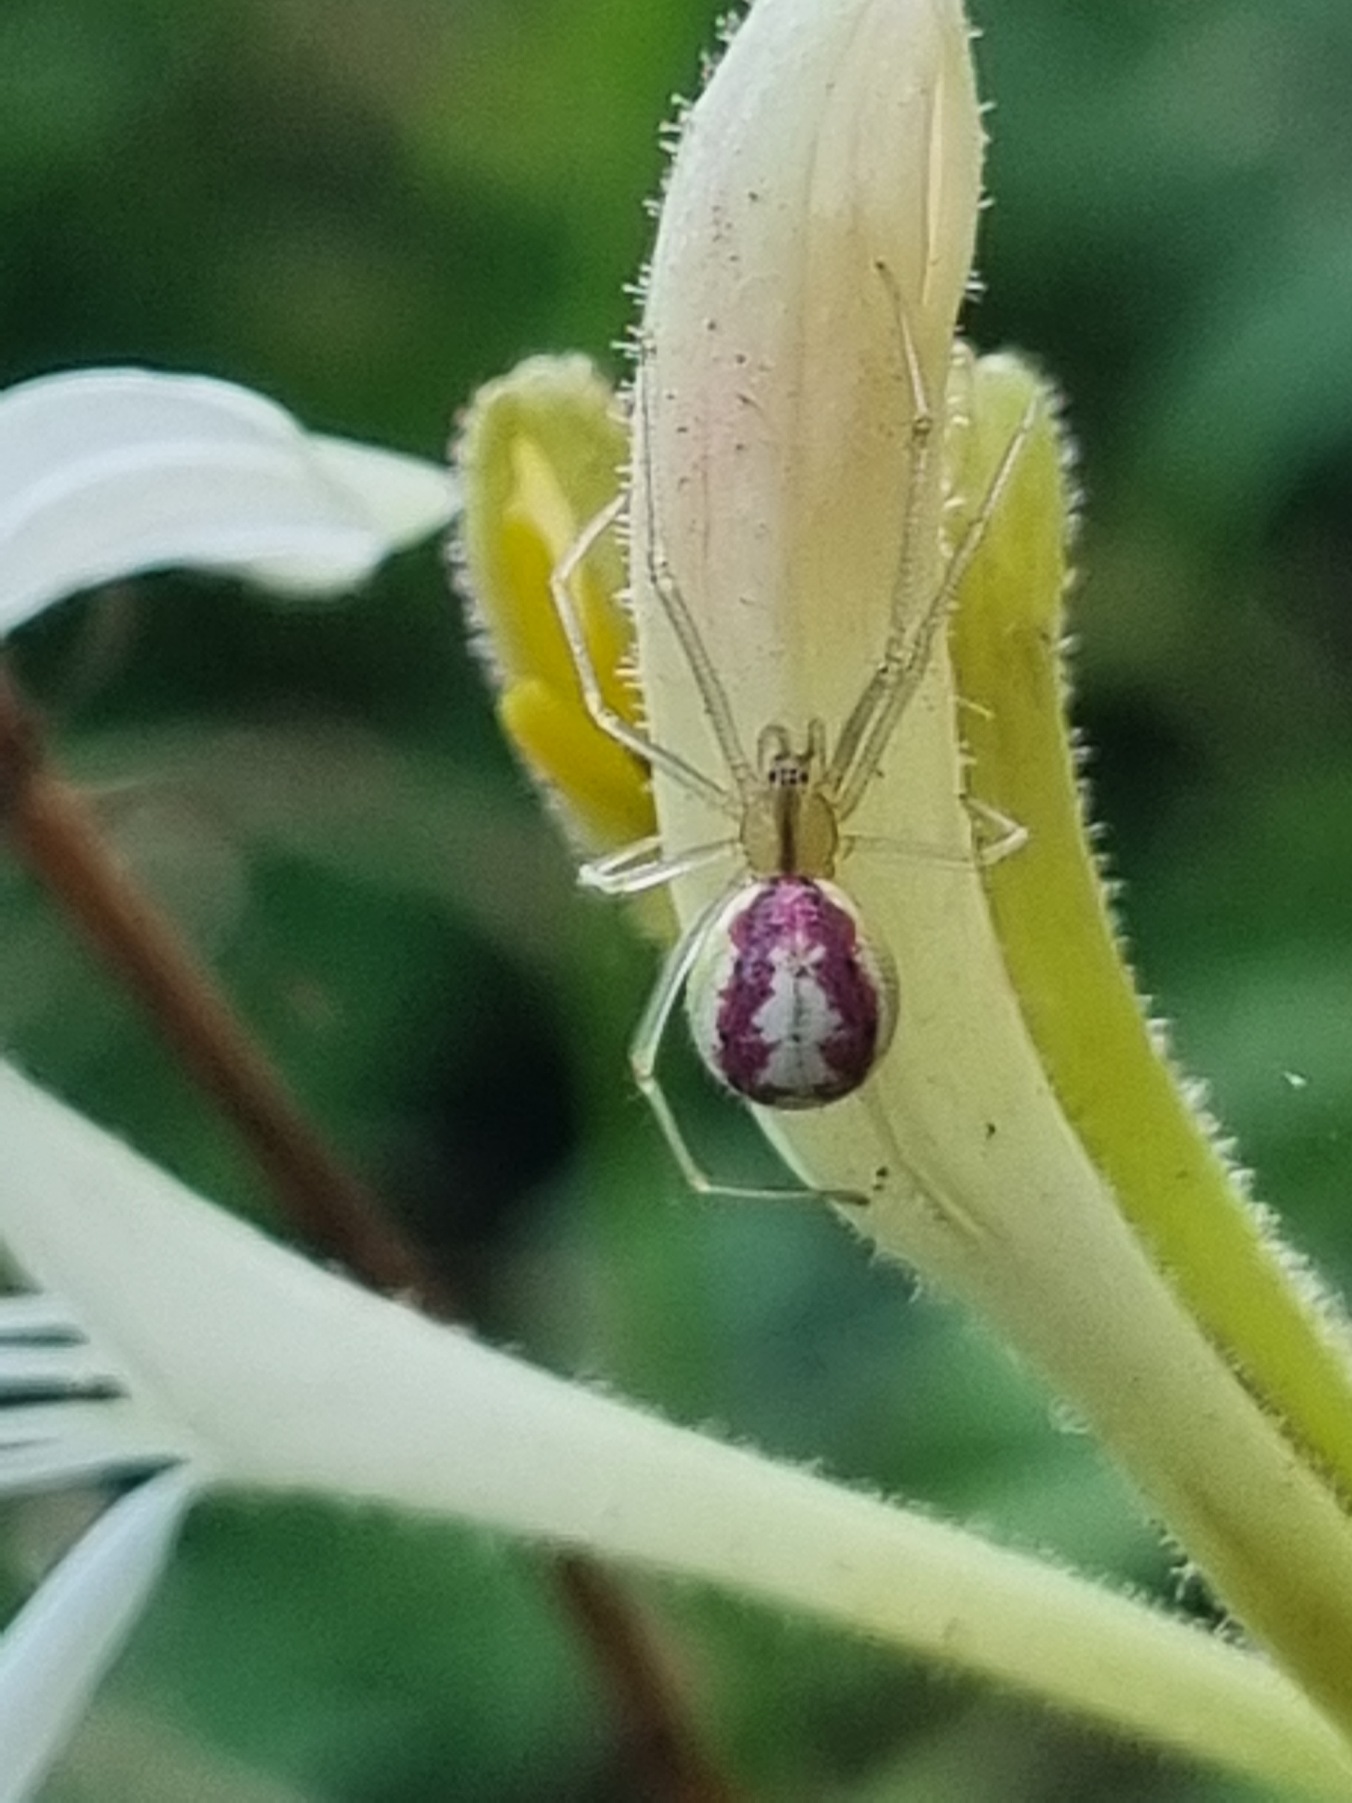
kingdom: Animalia
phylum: Arthropoda
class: Arachnida
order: Araneae
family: Theridiidae
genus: Enoplognatha
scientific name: Enoplognatha
